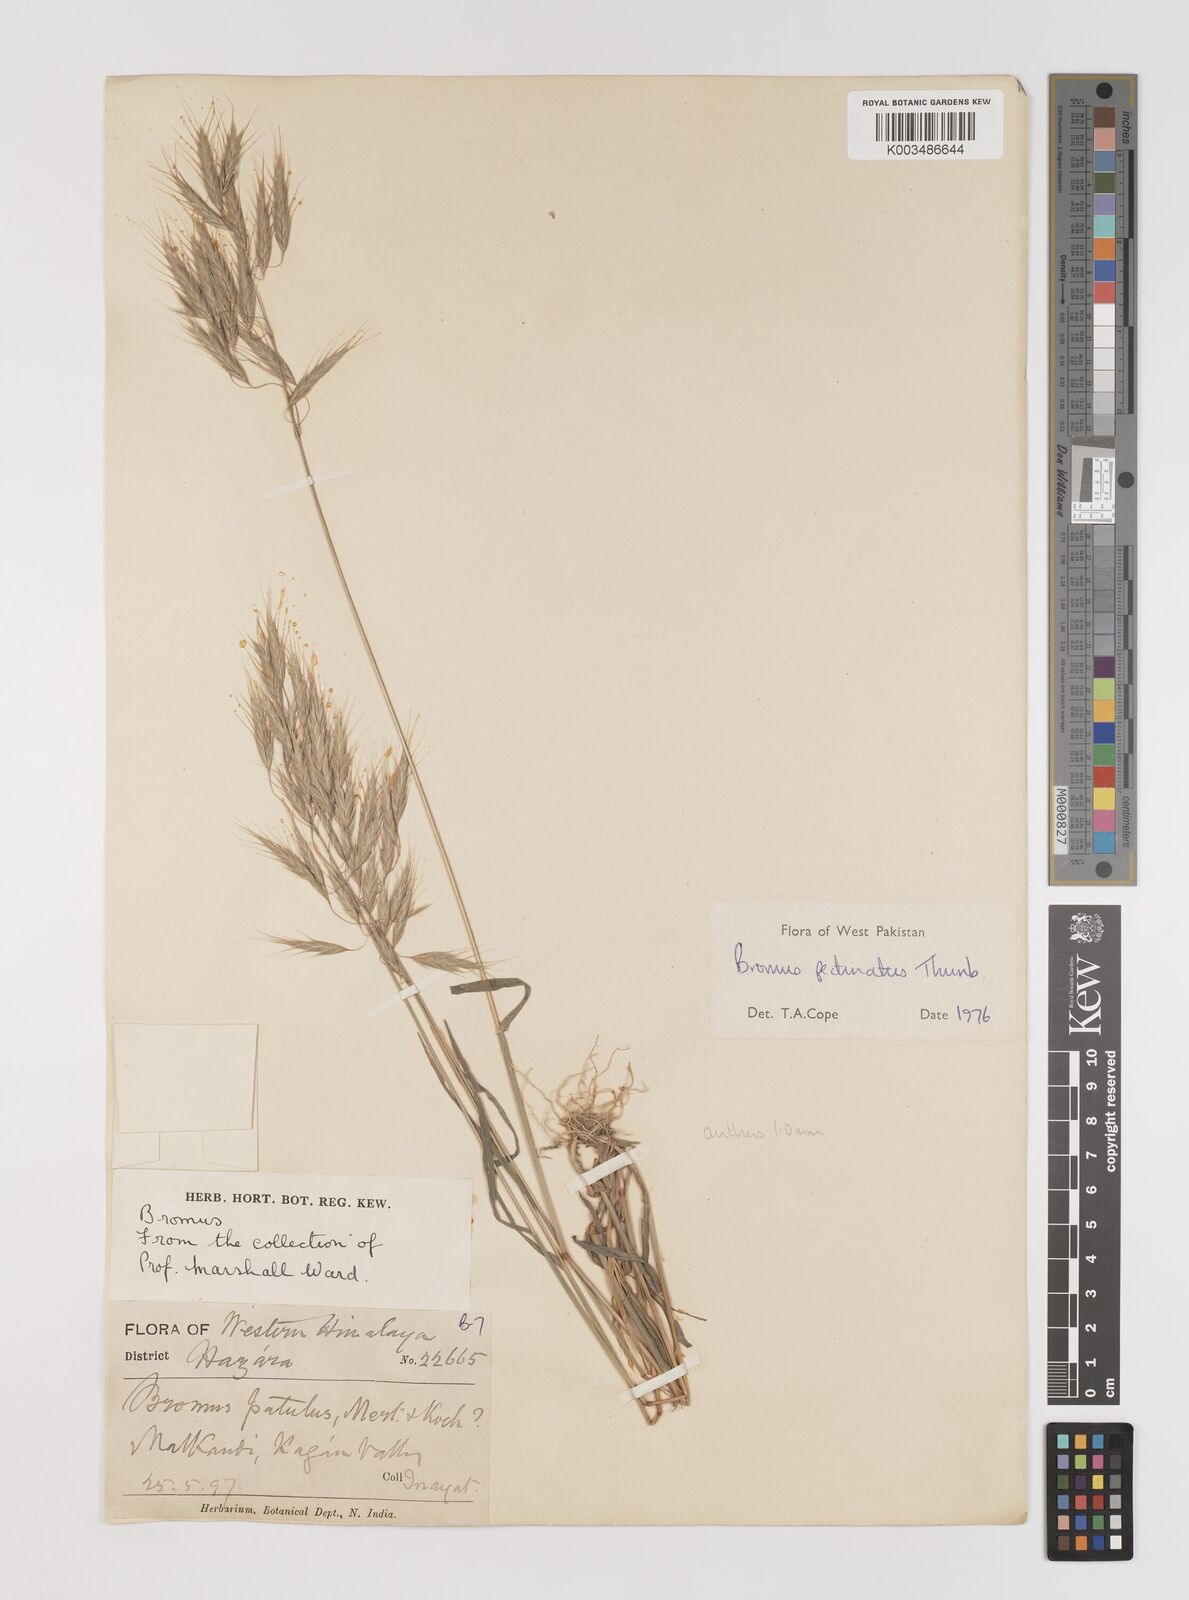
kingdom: Plantae
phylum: Tracheophyta
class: Liliopsida
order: Poales
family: Poaceae
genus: Bromus
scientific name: Bromus pectinatus
